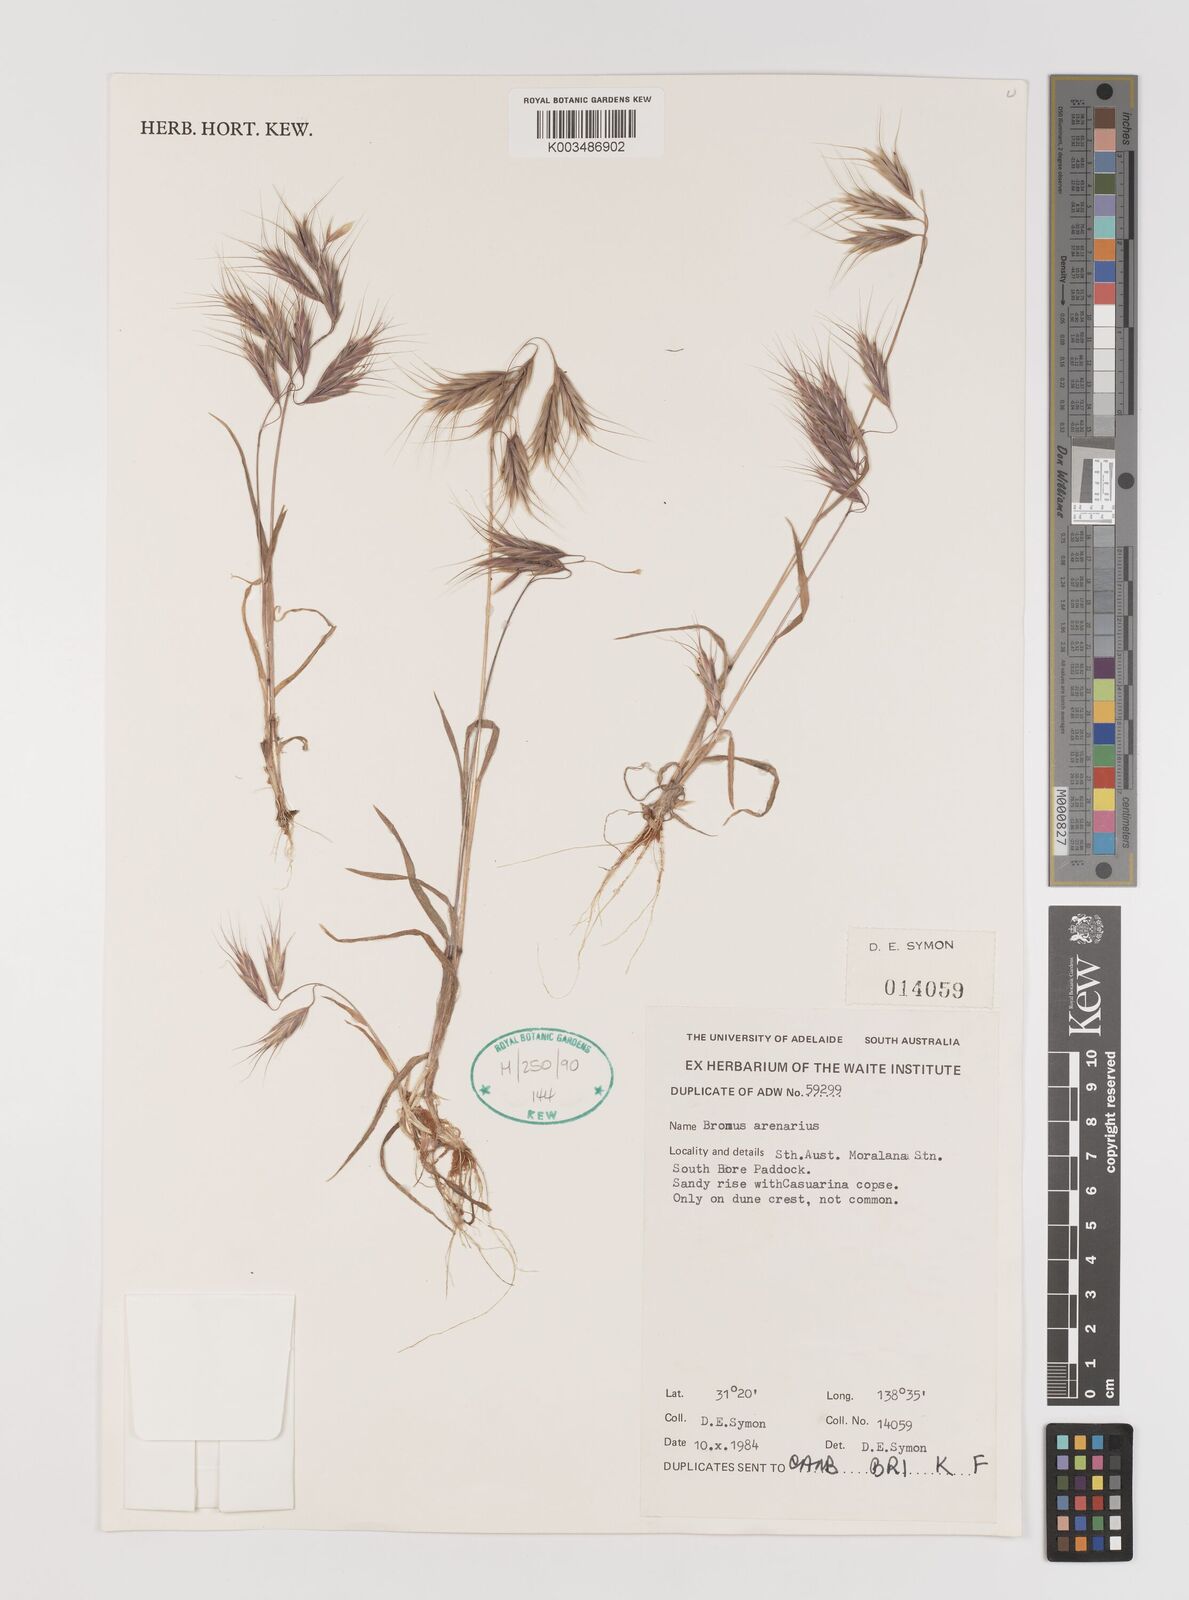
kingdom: Plantae
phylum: Tracheophyta
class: Liliopsida
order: Poales
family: Poaceae
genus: Bromus
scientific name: Bromus arenarius
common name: Australian brome
